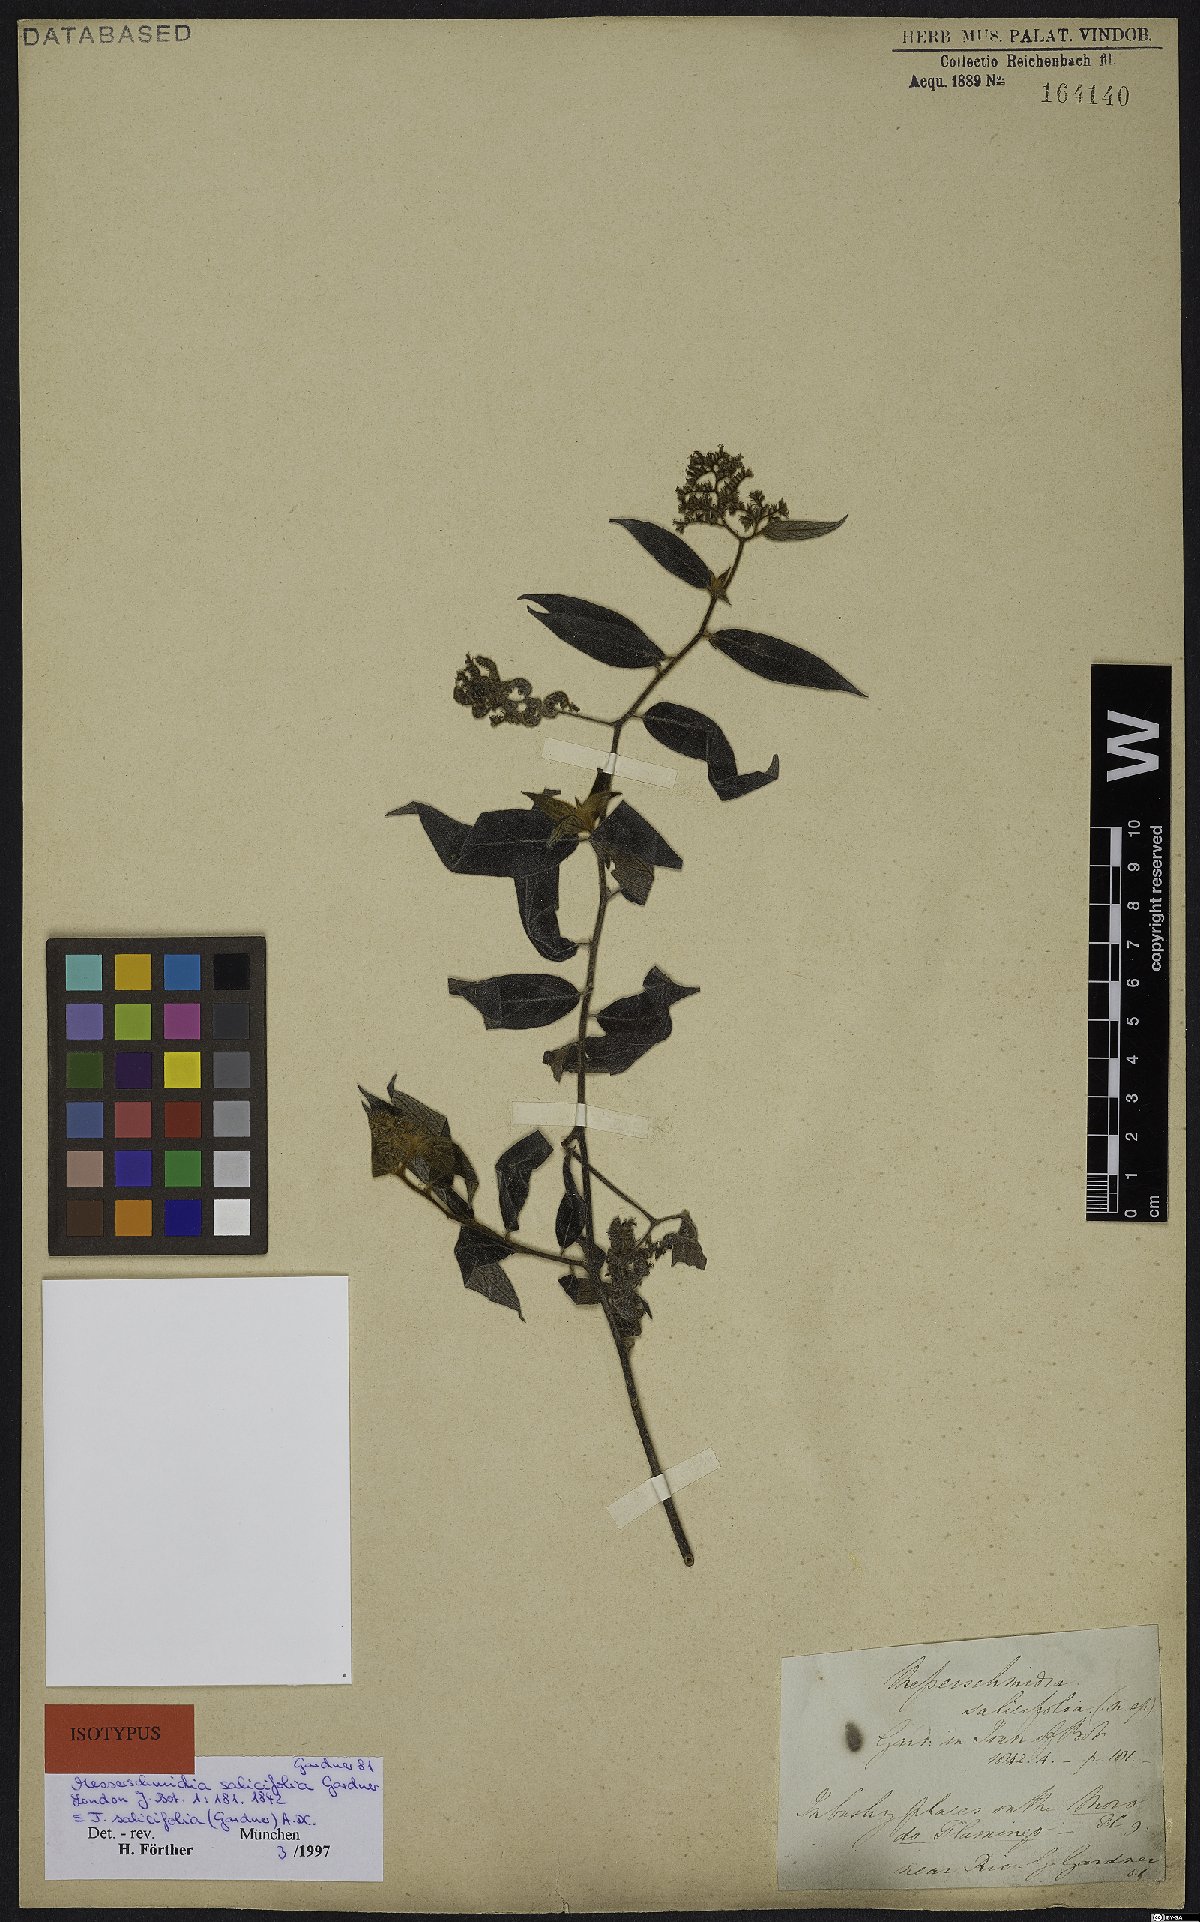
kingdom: Plantae
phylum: Tracheophyta
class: Magnoliopsida
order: Boraginales
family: Heliotropiaceae
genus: Myriopus
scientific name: Myriopus salicifolius
